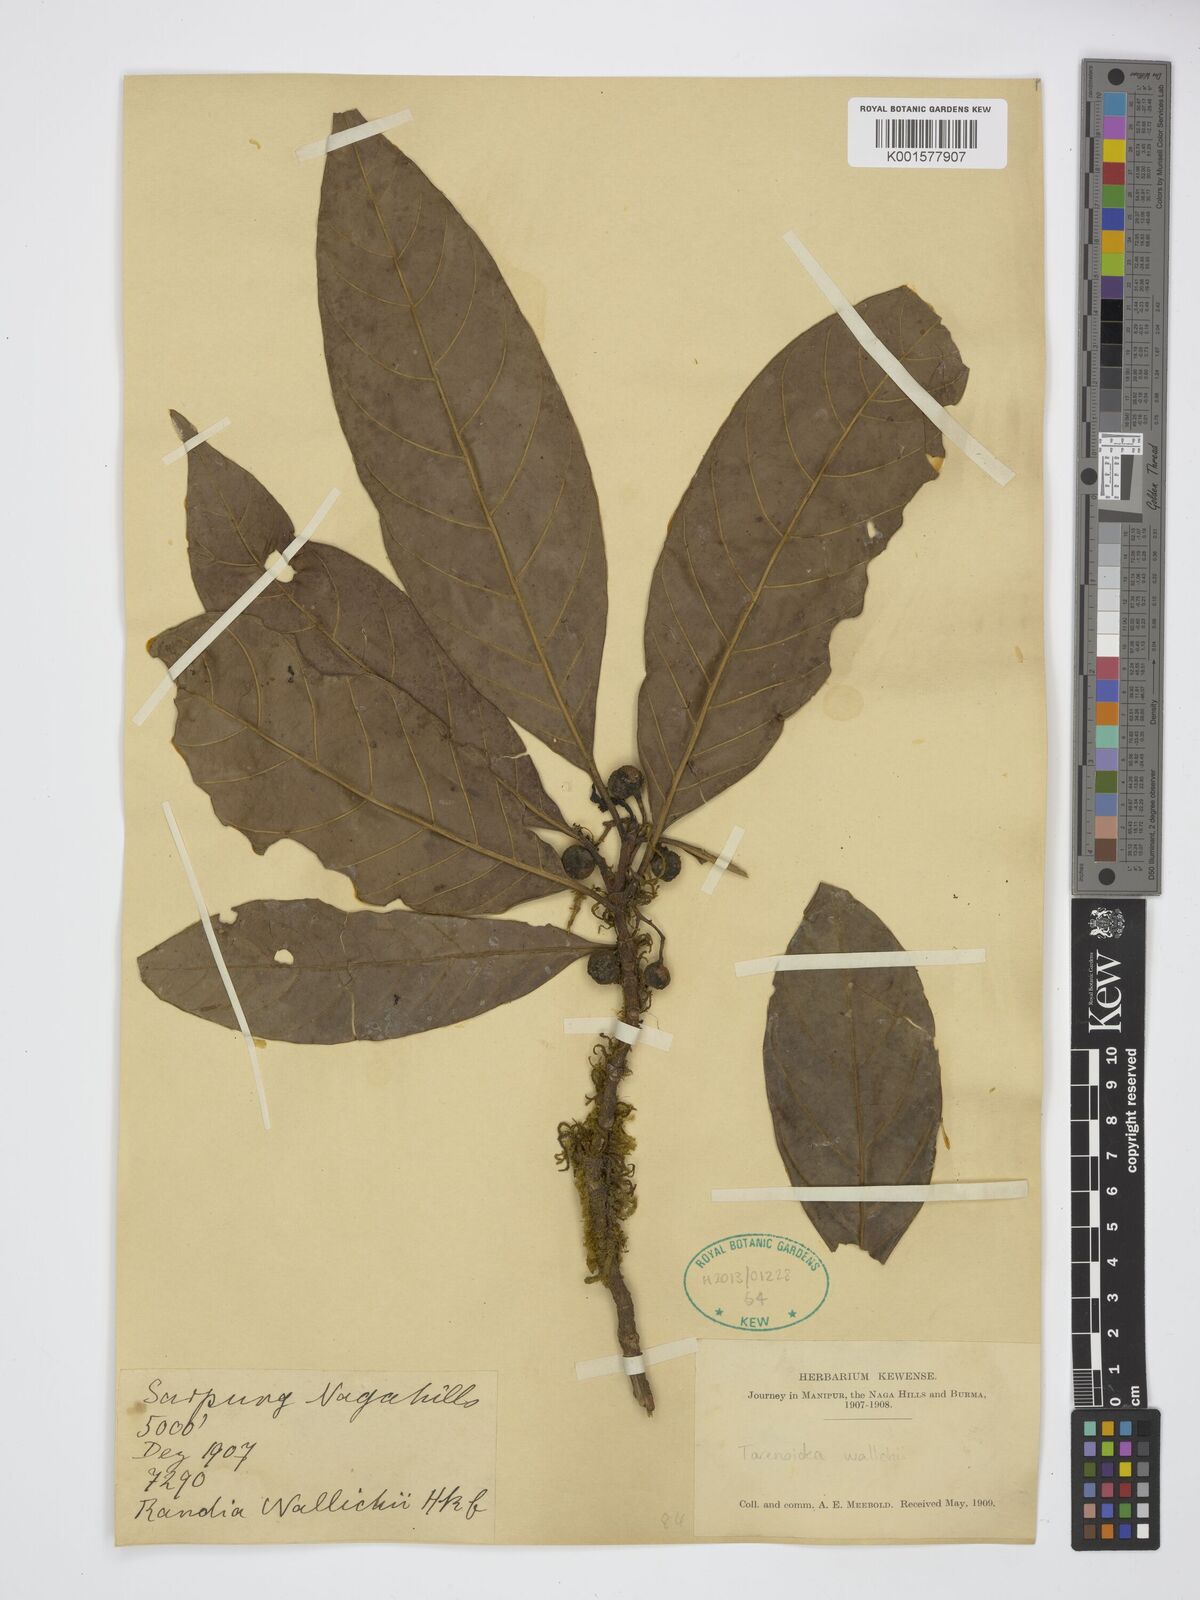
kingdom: Plantae
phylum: Tracheophyta
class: Magnoliopsida
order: Gentianales
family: Rubiaceae
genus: Tarennoidea
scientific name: Tarennoidea wallichii
